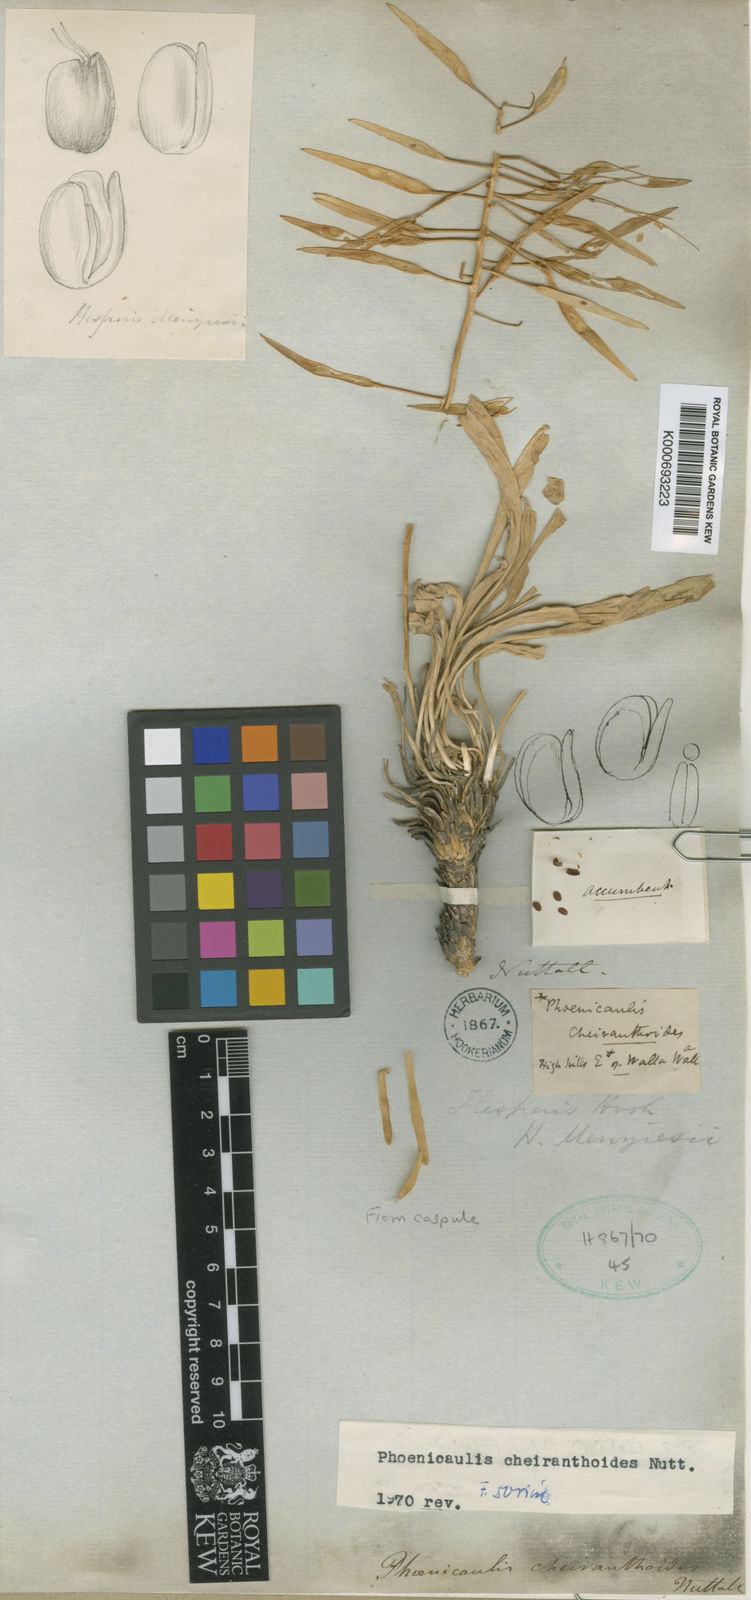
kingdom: Plantae
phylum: Tracheophyta
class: Magnoliopsida
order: Brassicales
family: Brassicaceae
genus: Phoenicaulis
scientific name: Phoenicaulis cheiranthoides
